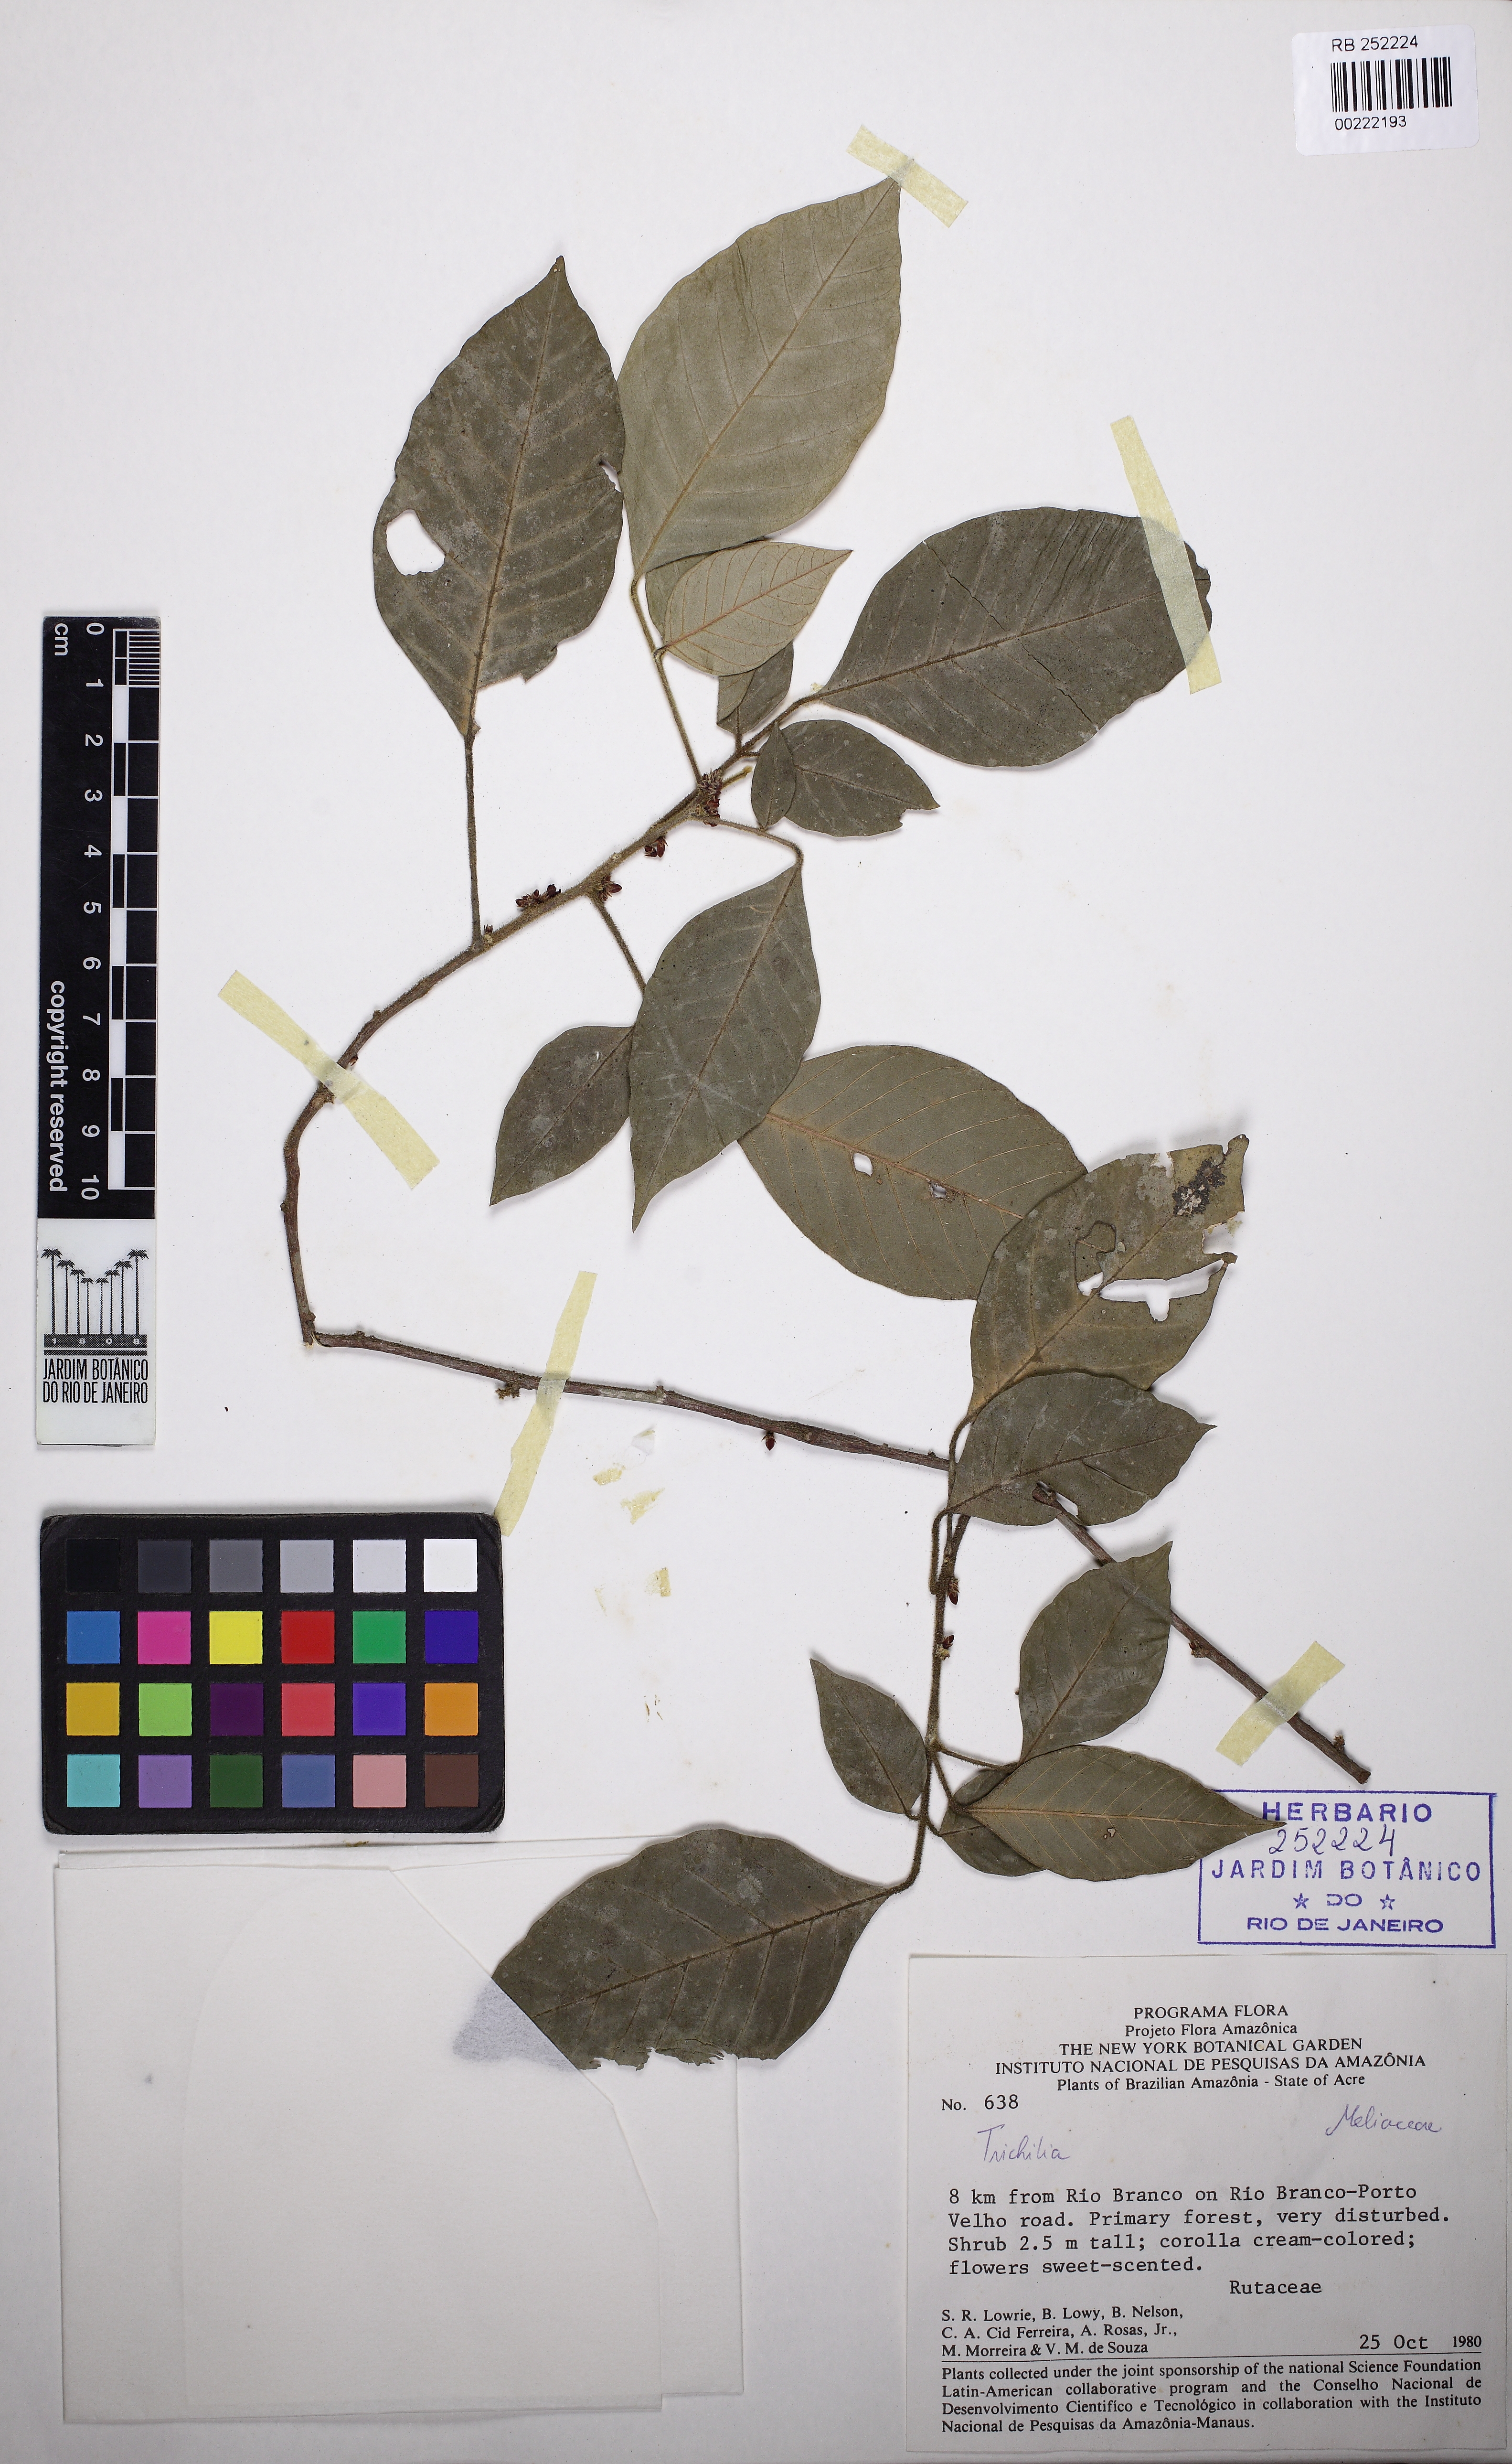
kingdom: Plantae
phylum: Tracheophyta
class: Magnoliopsida
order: Sapindales
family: Meliaceae
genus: Trichilia
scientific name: Trichilia fasciculata
